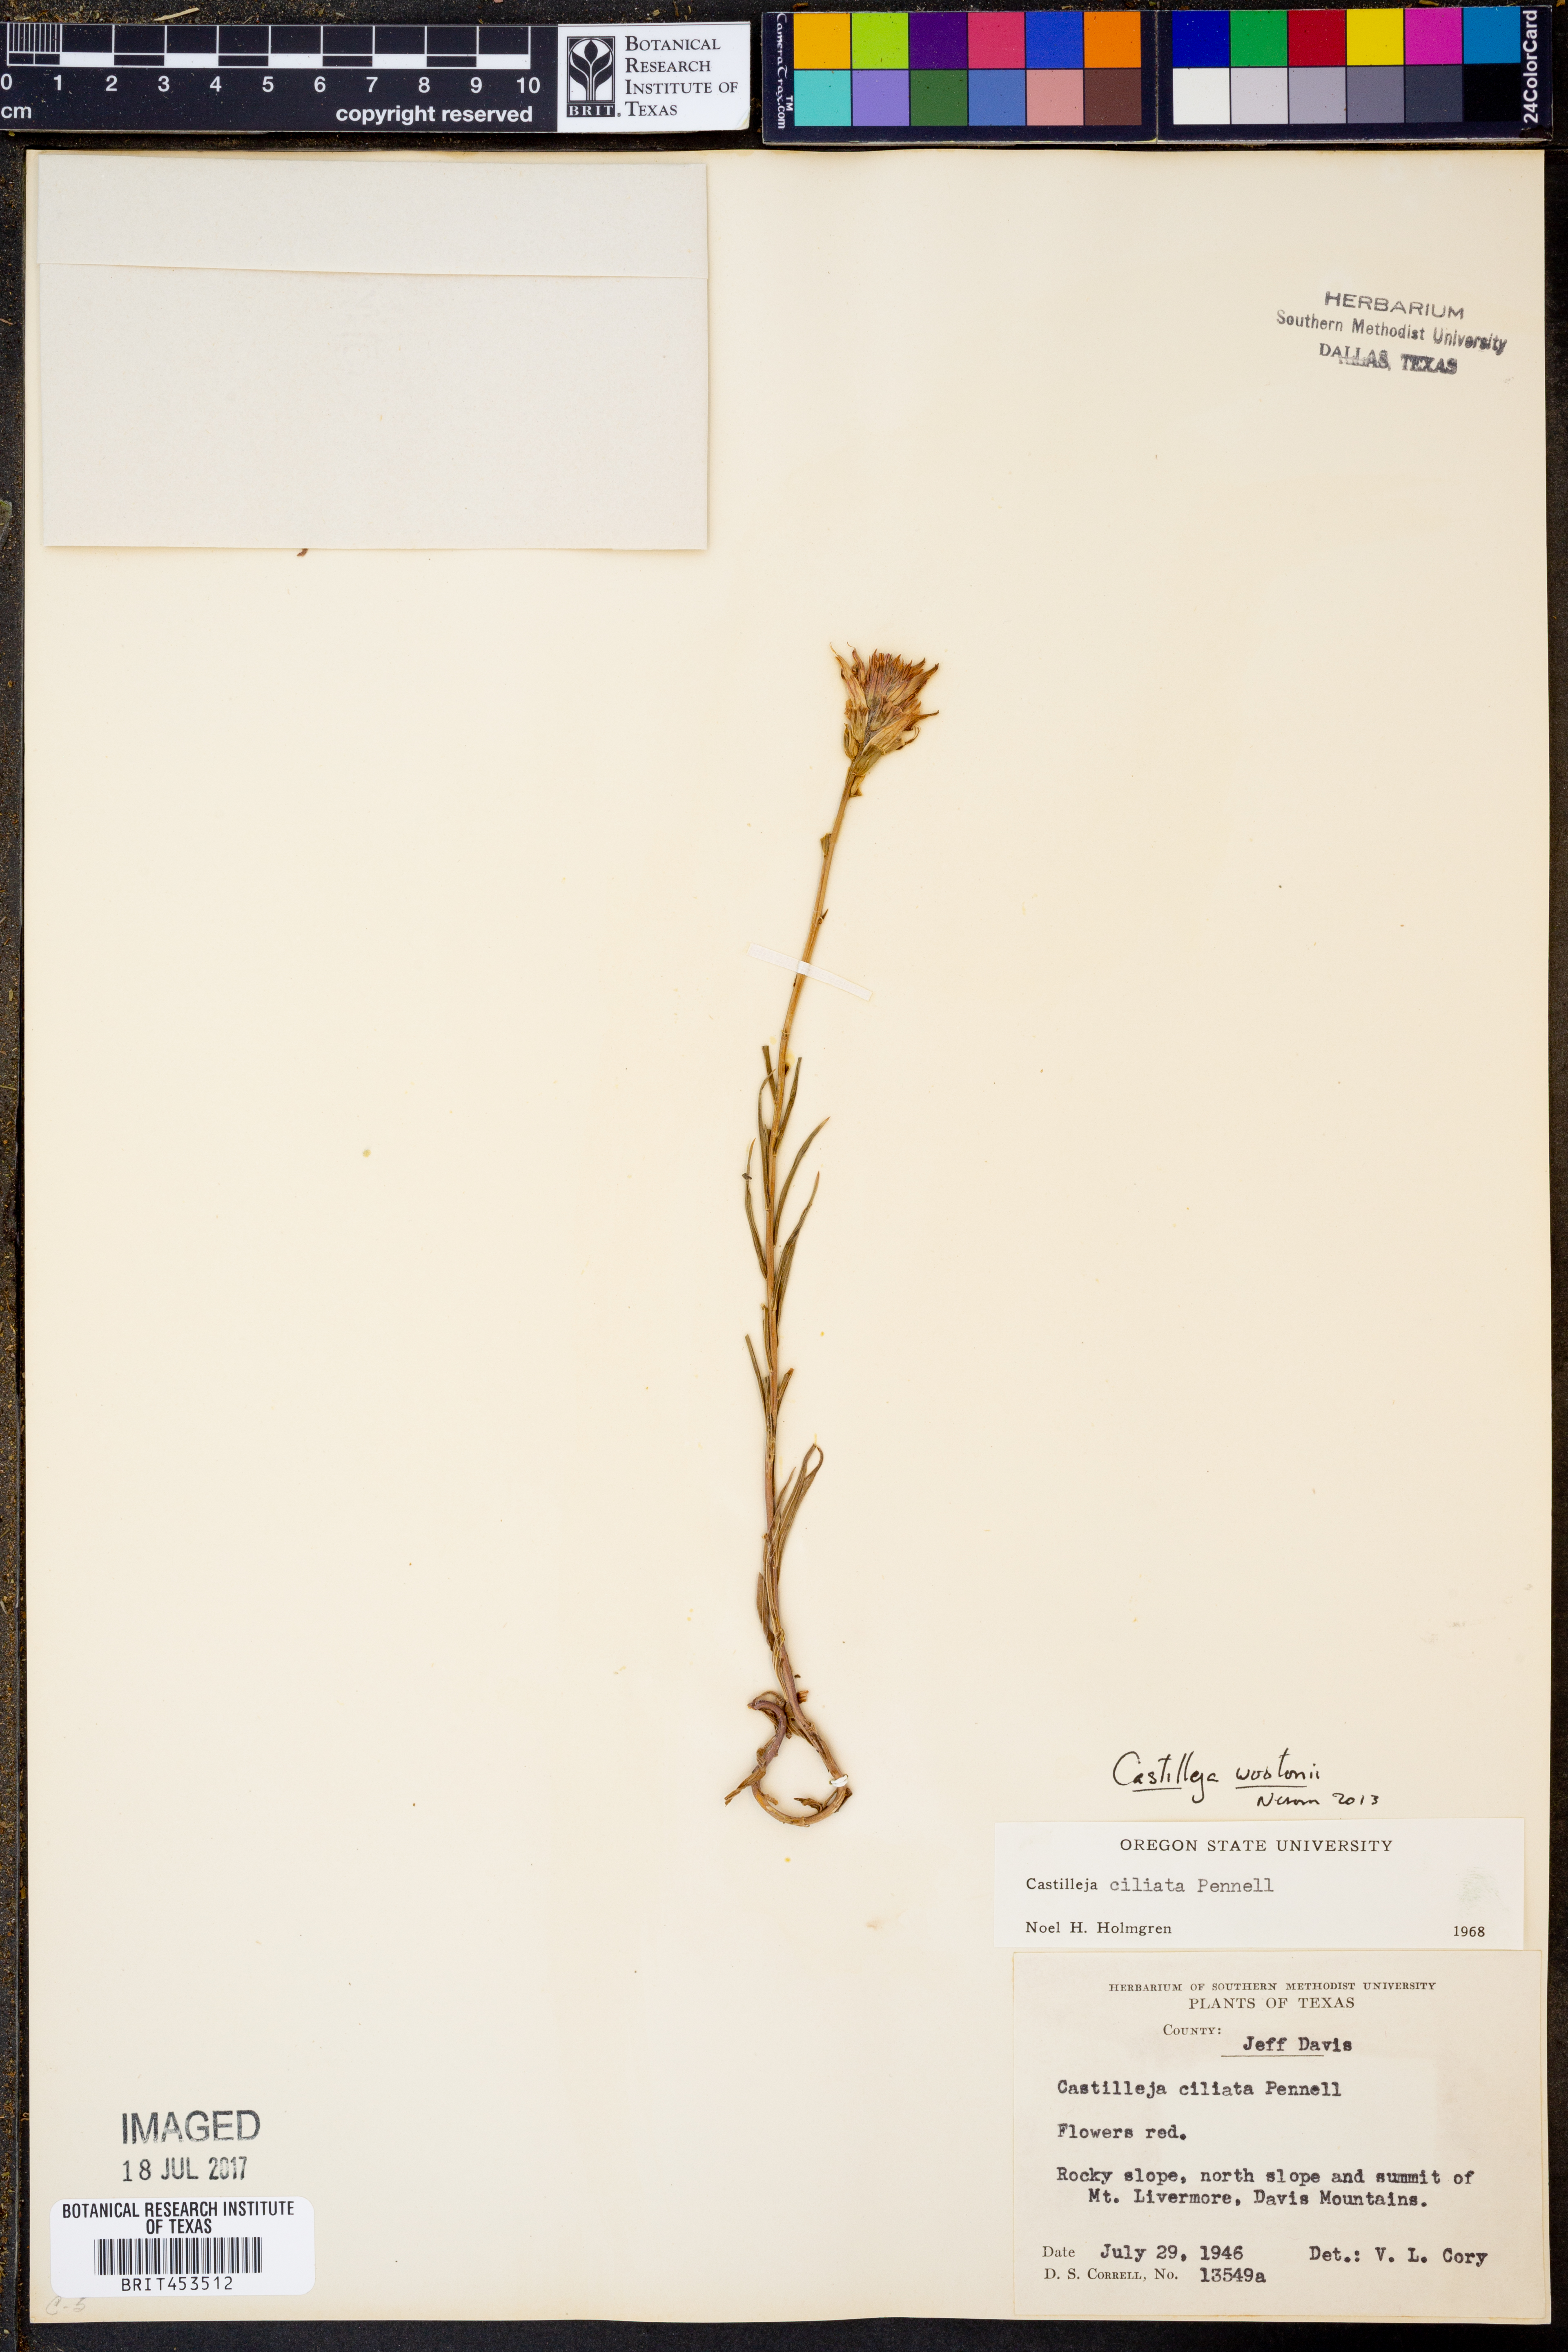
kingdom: Plantae
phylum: Tracheophyta
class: Magnoliopsida
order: Lamiales
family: Orobanchaceae
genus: Castilleja
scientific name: Castilleja wootonii
